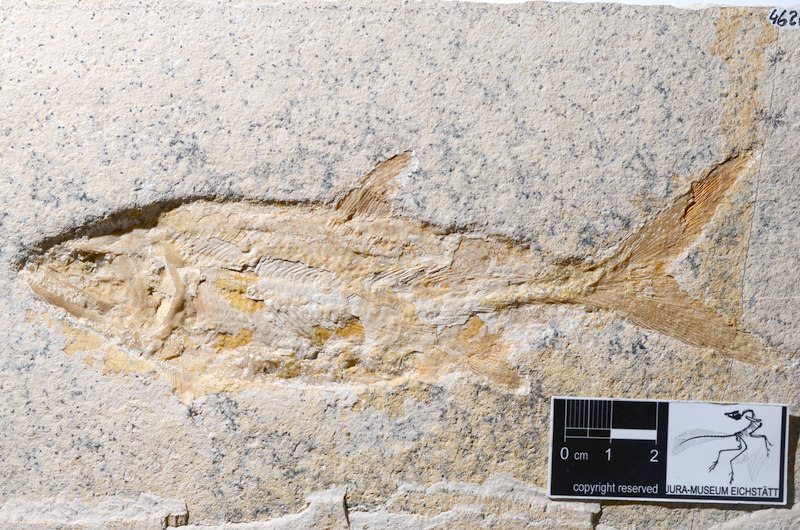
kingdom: Animalia
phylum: Chordata
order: Amiiformes
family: Caturidae
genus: Caturus
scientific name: Caturus furcatus
